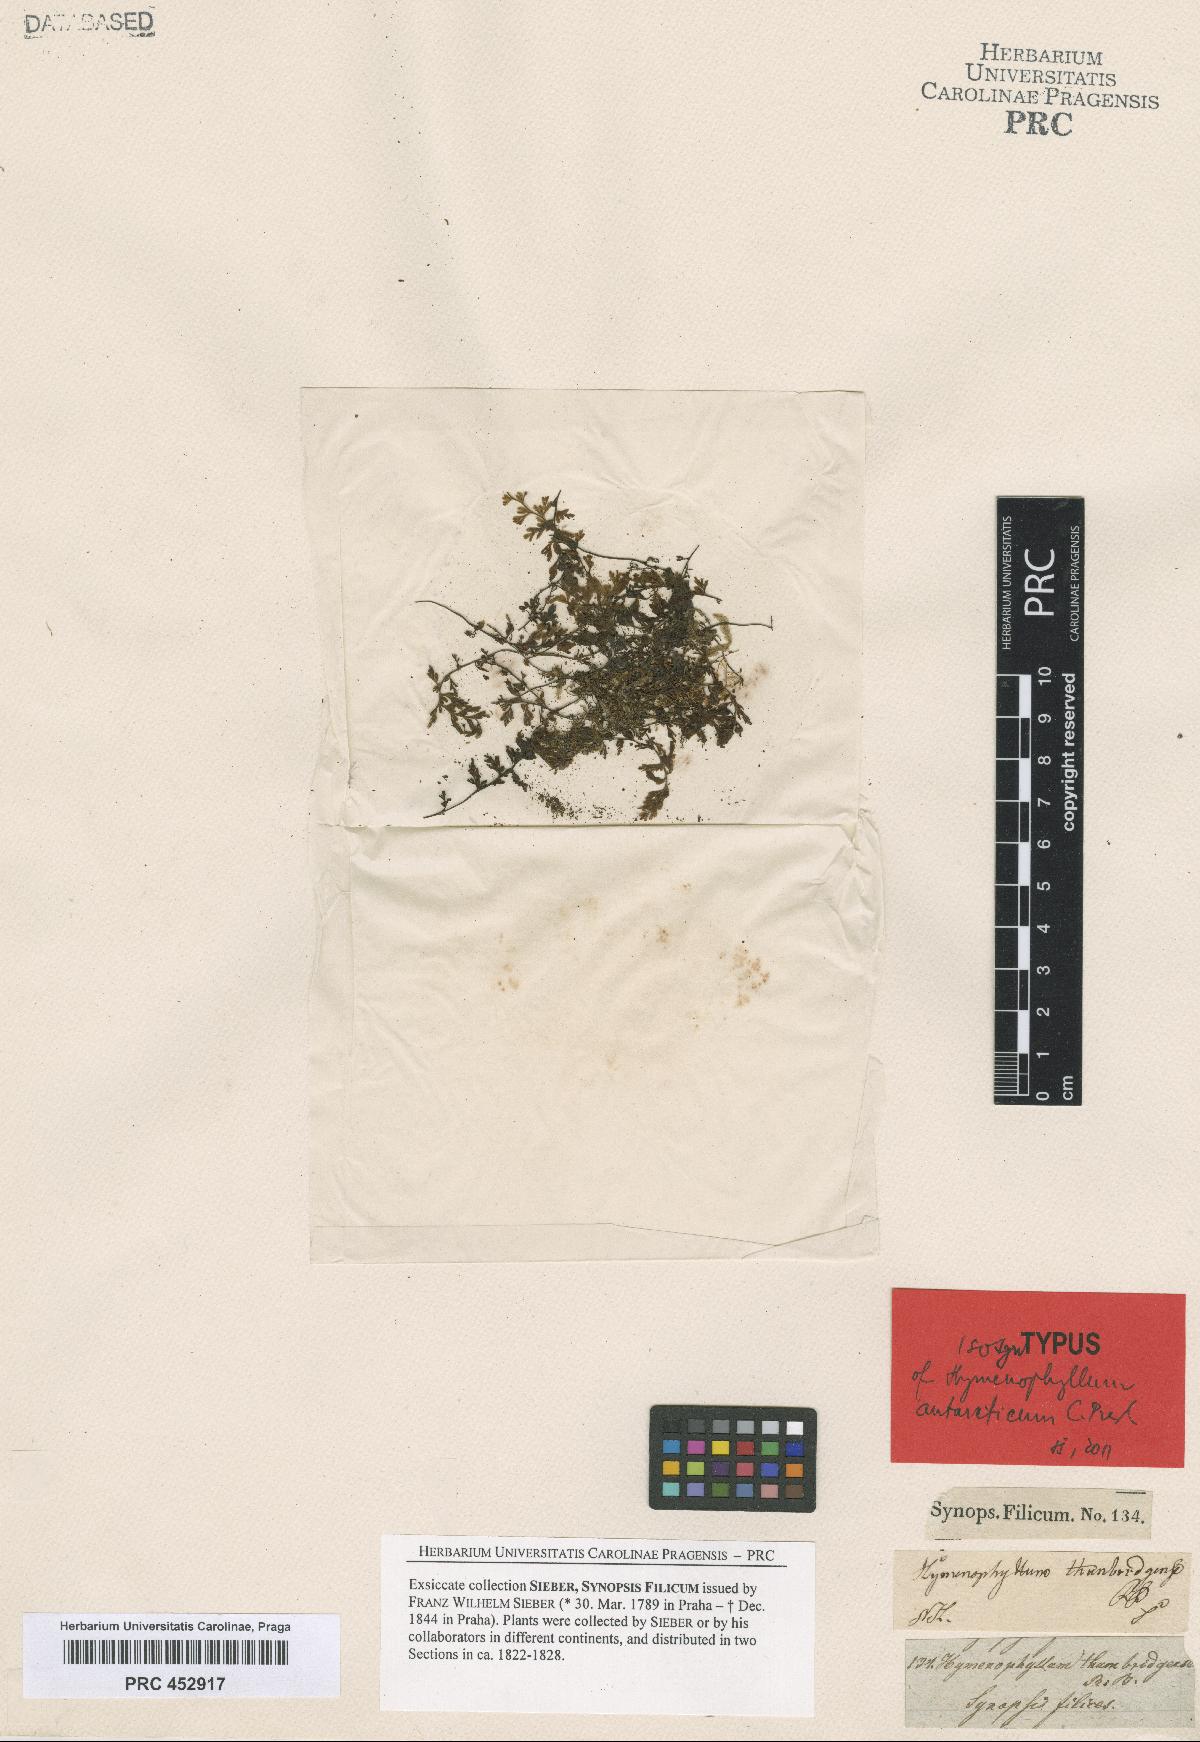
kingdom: Plantae
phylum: Tracheophyta
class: Polypodiopsida
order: Hymenophyllales
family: Hymenophyllaceae
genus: Hymenophyllum
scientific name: Hymenophyllum cupressiforme
